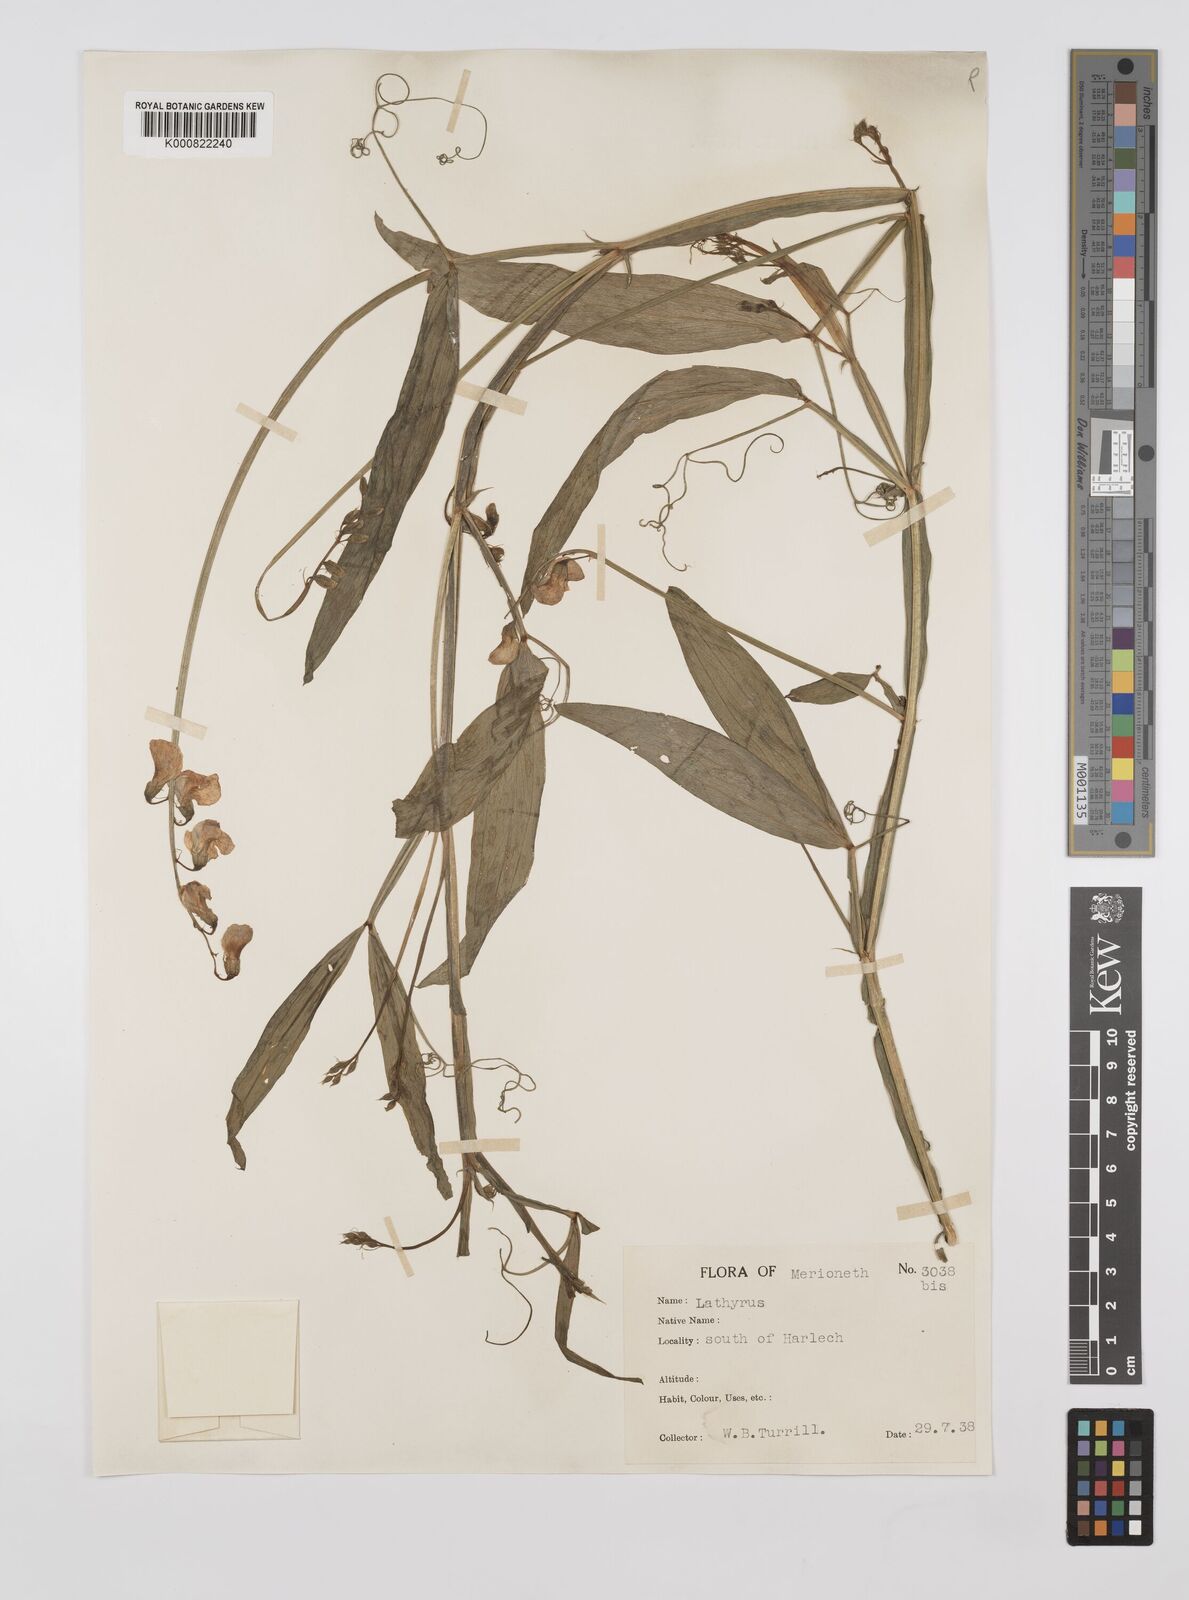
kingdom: Plantae
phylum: Tracheophyta
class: Magnoliopsida
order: Fabales
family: Fabaceae
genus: Lathyrus
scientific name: Lathyrus sylvestris
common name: Flat pea
